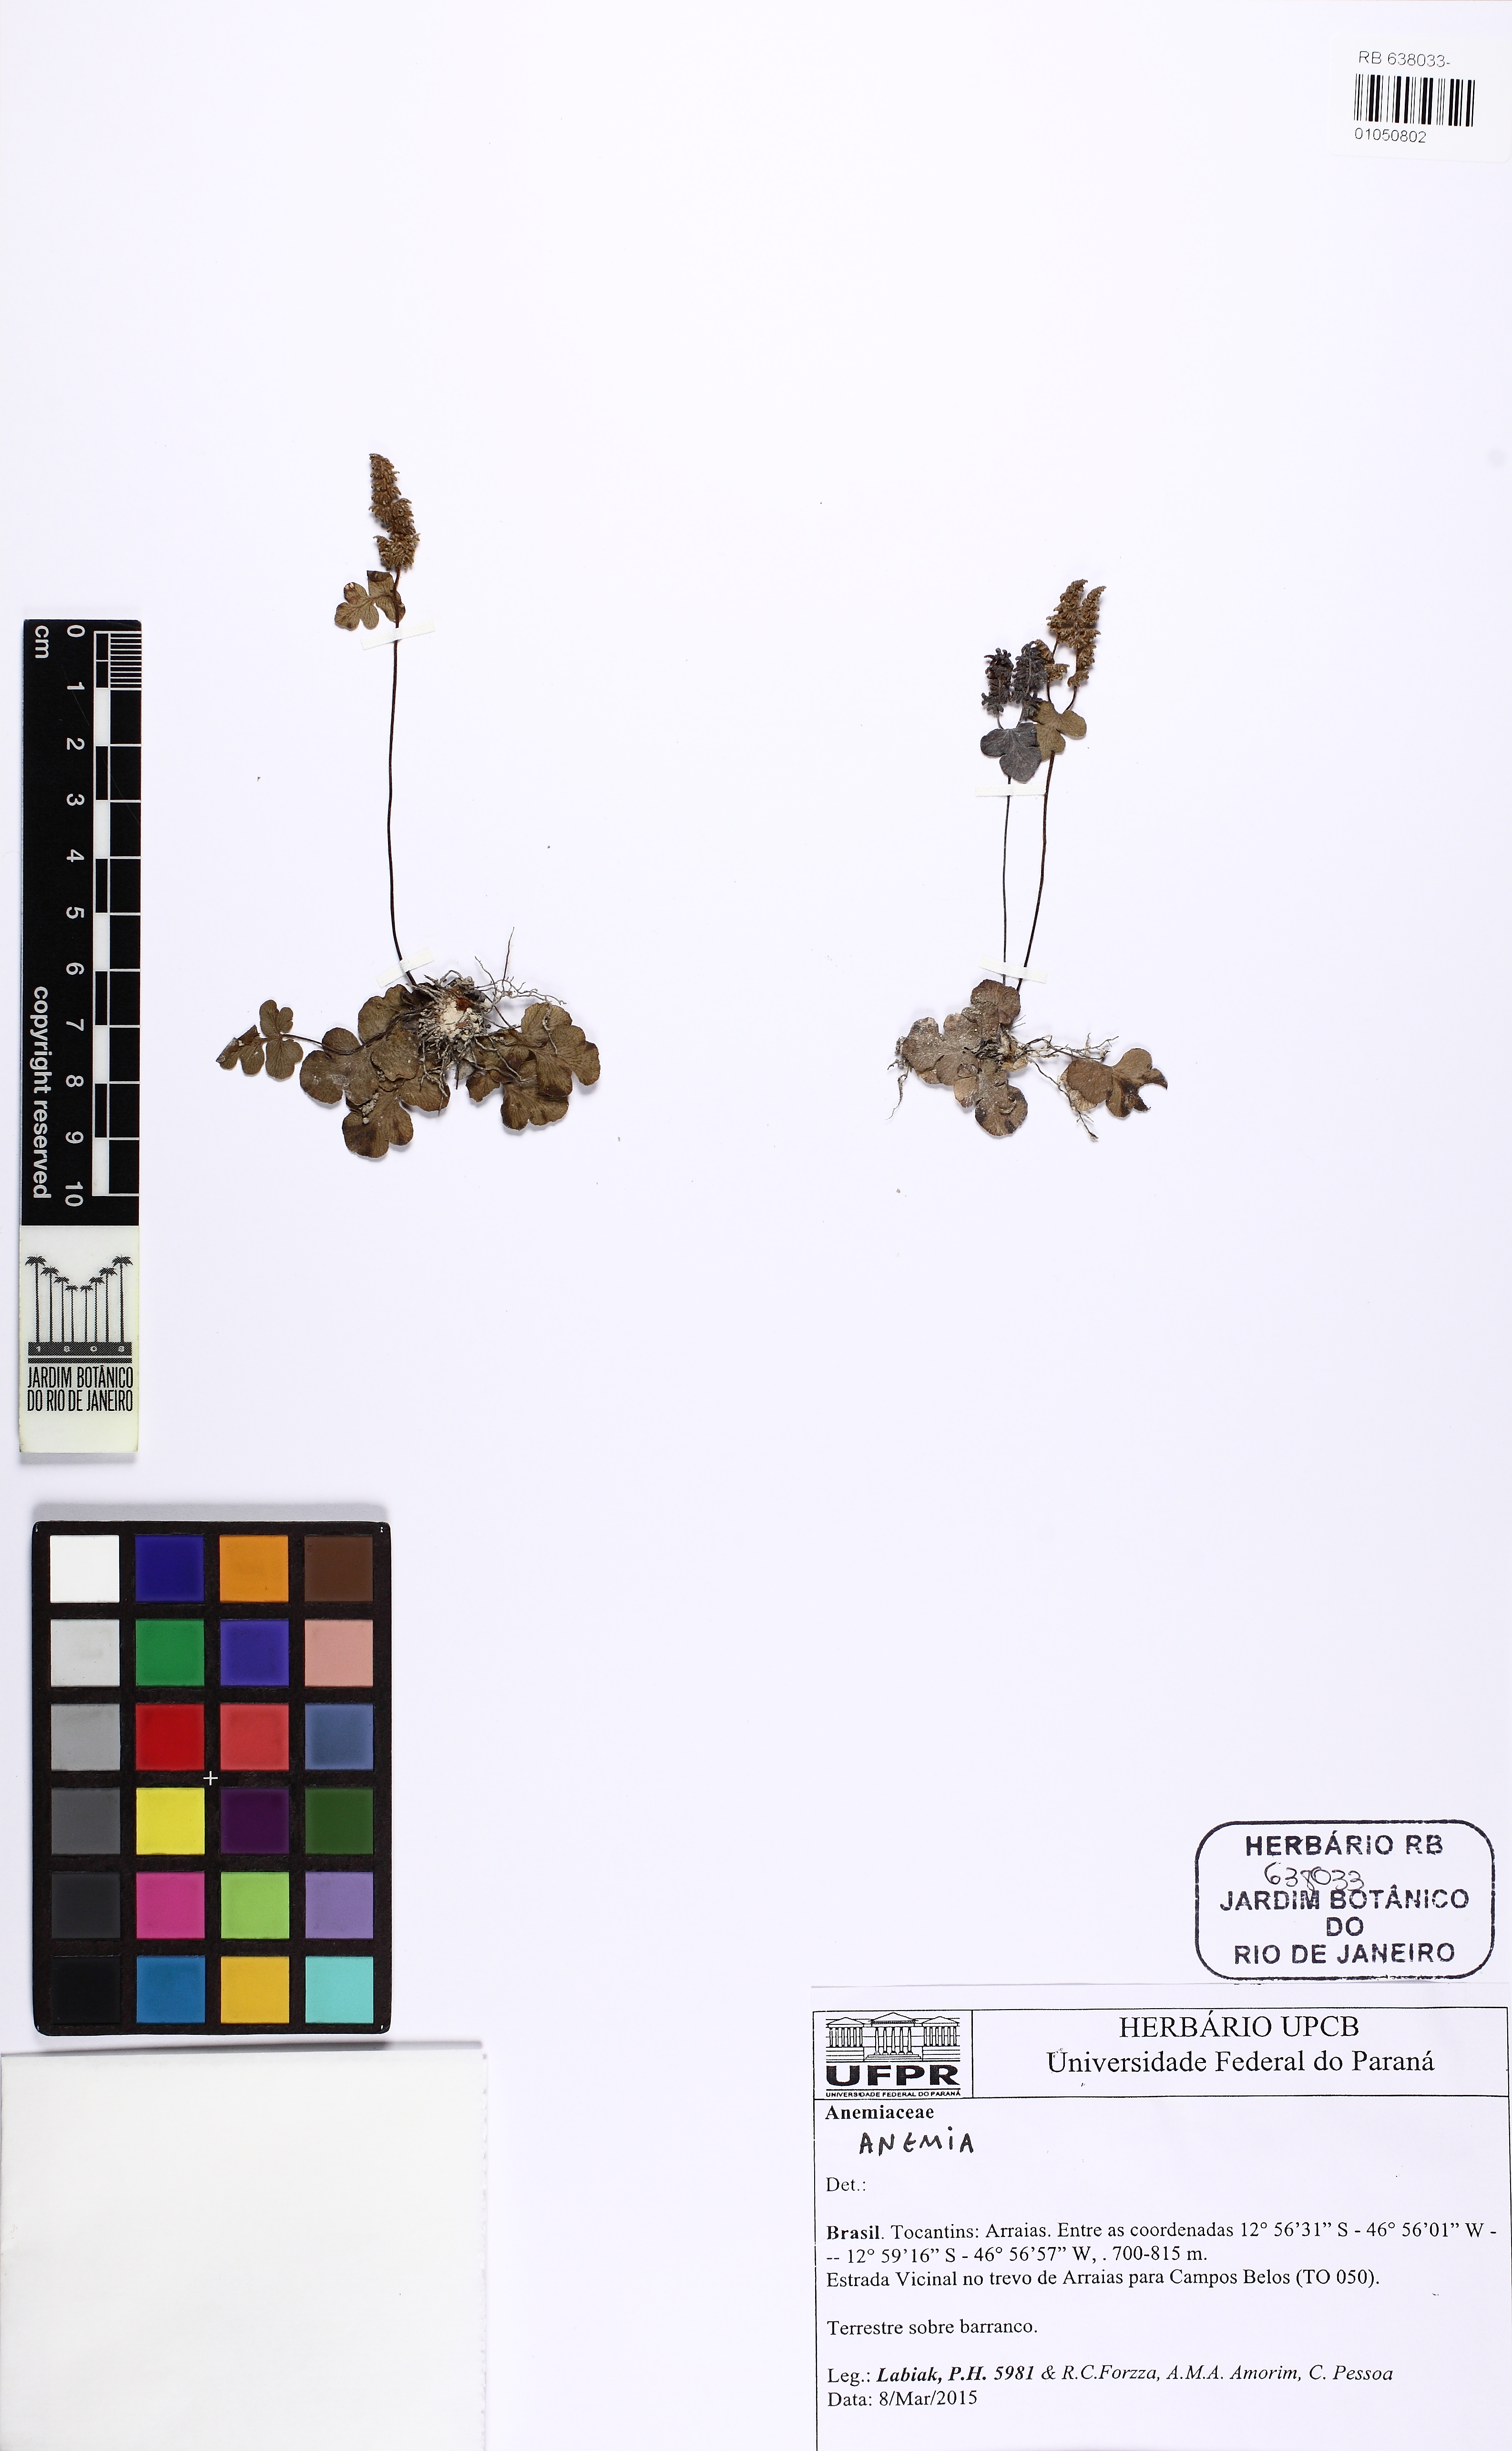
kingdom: Plantae
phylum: Tracheophyta
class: Polypodiopsida
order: Schizaeales
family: Anemiaceae
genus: Anemia
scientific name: Anemia glareosa
